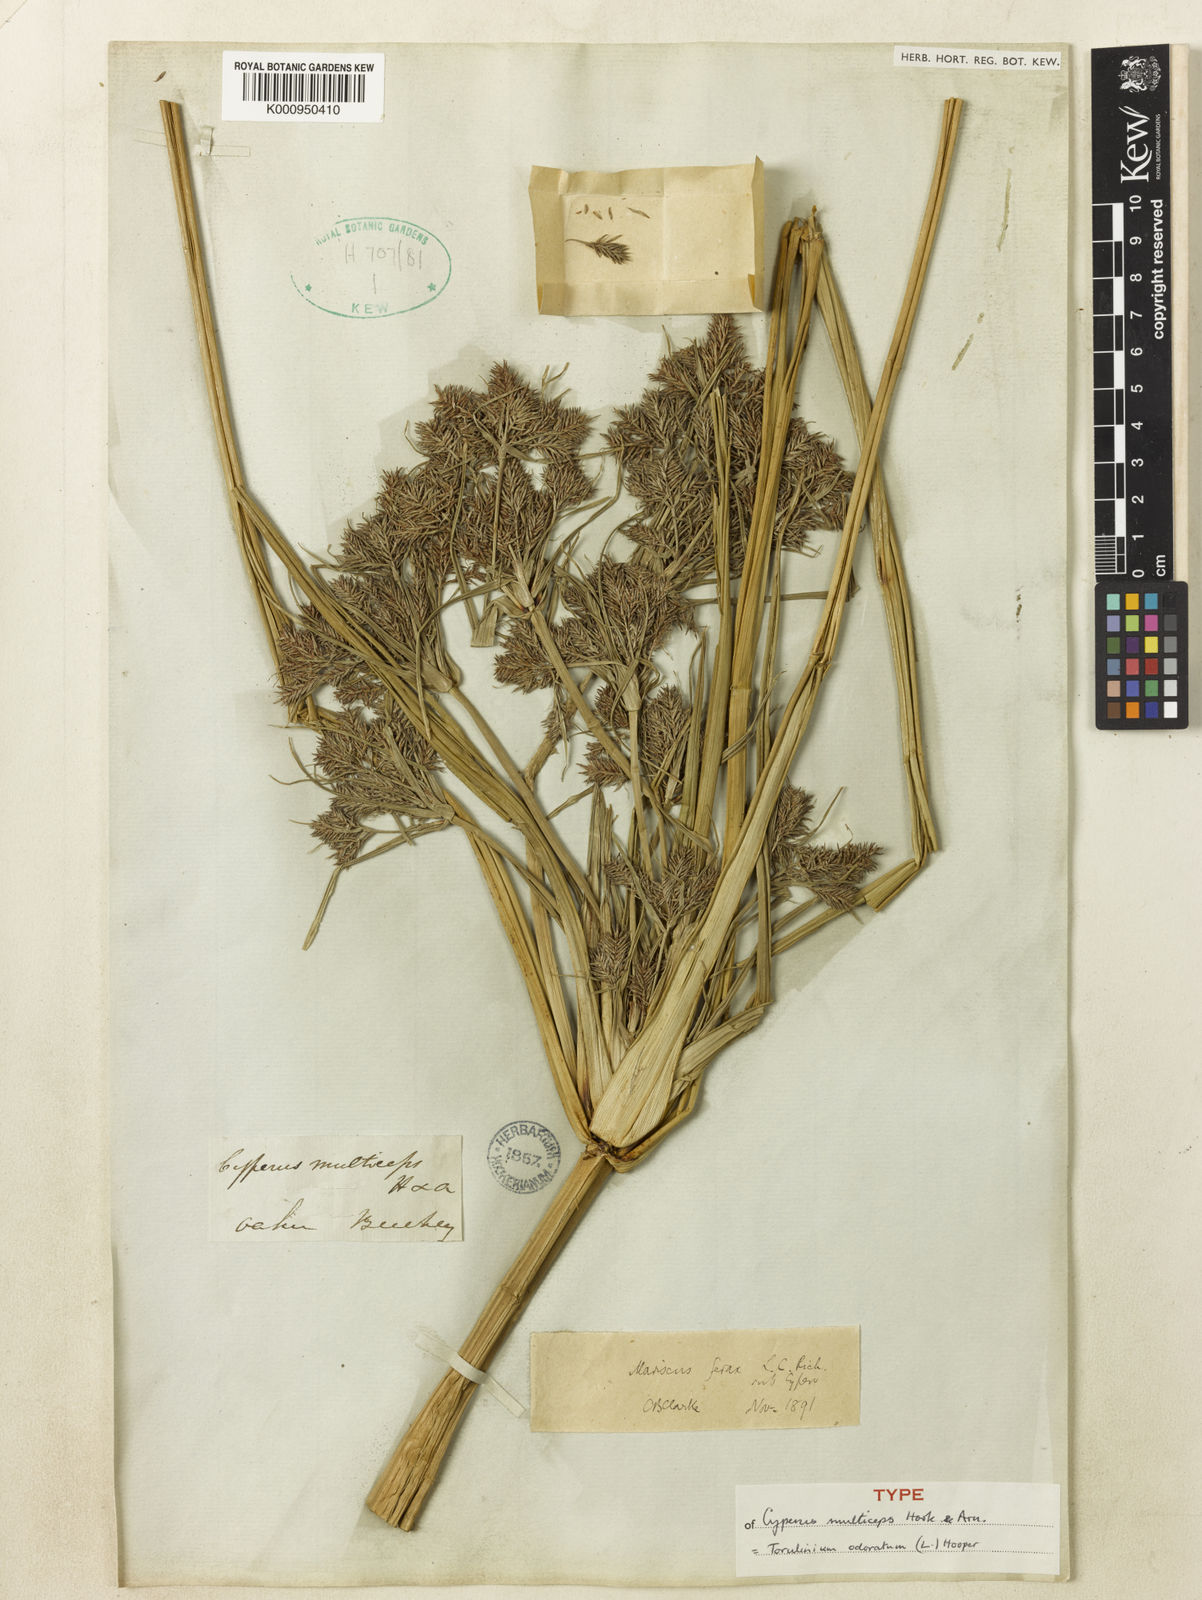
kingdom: Plantae
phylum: Tracheophyta
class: Liliopsida
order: Poales
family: Cyperaceae
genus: Cyperus
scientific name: Cyperus odoratus
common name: Fragrant flatsedge
